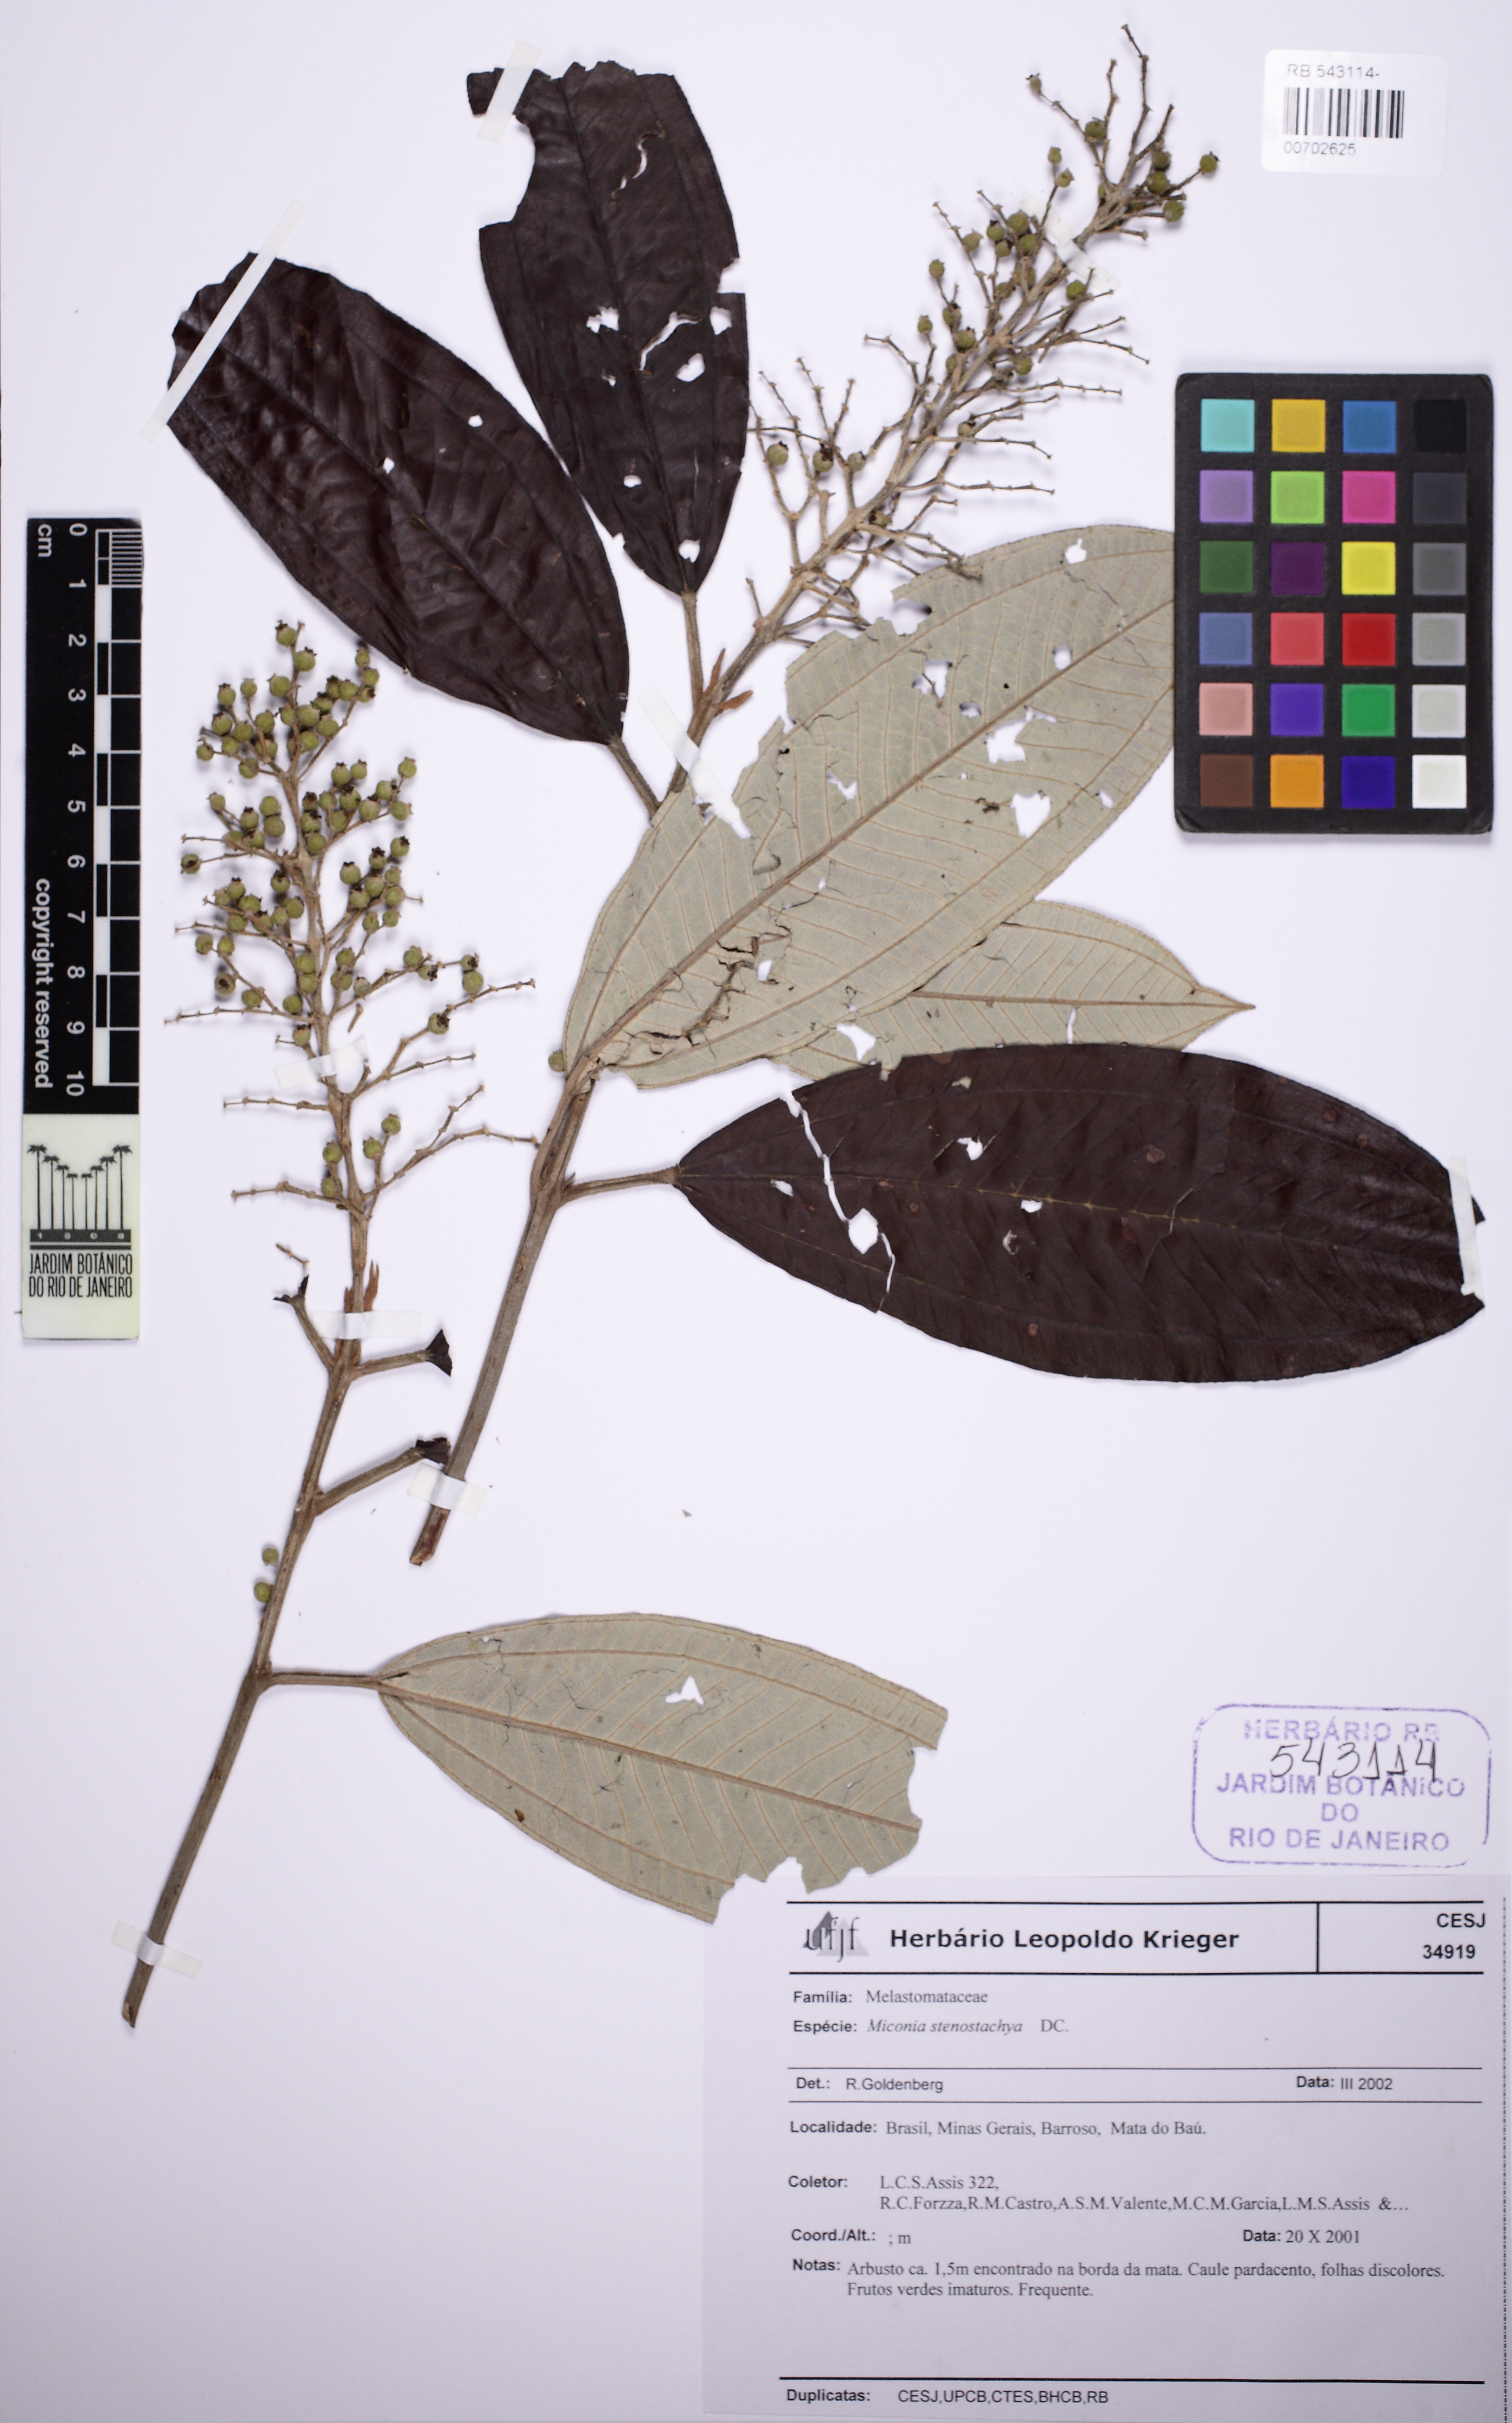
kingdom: Plantae
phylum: Tracheophyta
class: Magnoliopsida
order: Myrtales
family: Melastomataceae
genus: Miconia
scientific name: Miconia stenostachya
